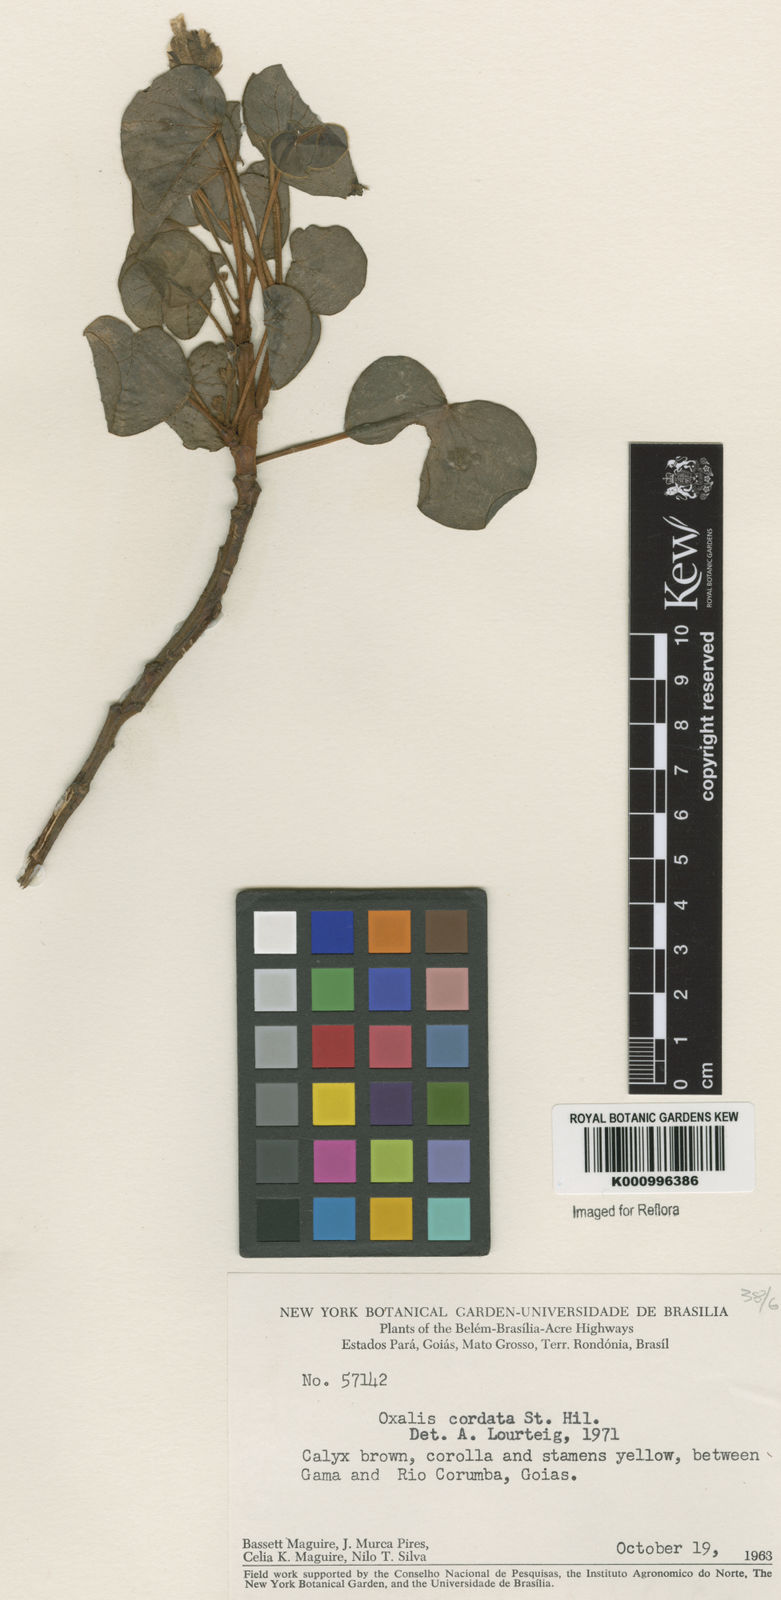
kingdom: Plantae
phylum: Tracheophyta
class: Magnoliopsida
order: Oxalidales
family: Oxalidaceae
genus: Oxalis
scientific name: Oxalis cordata
